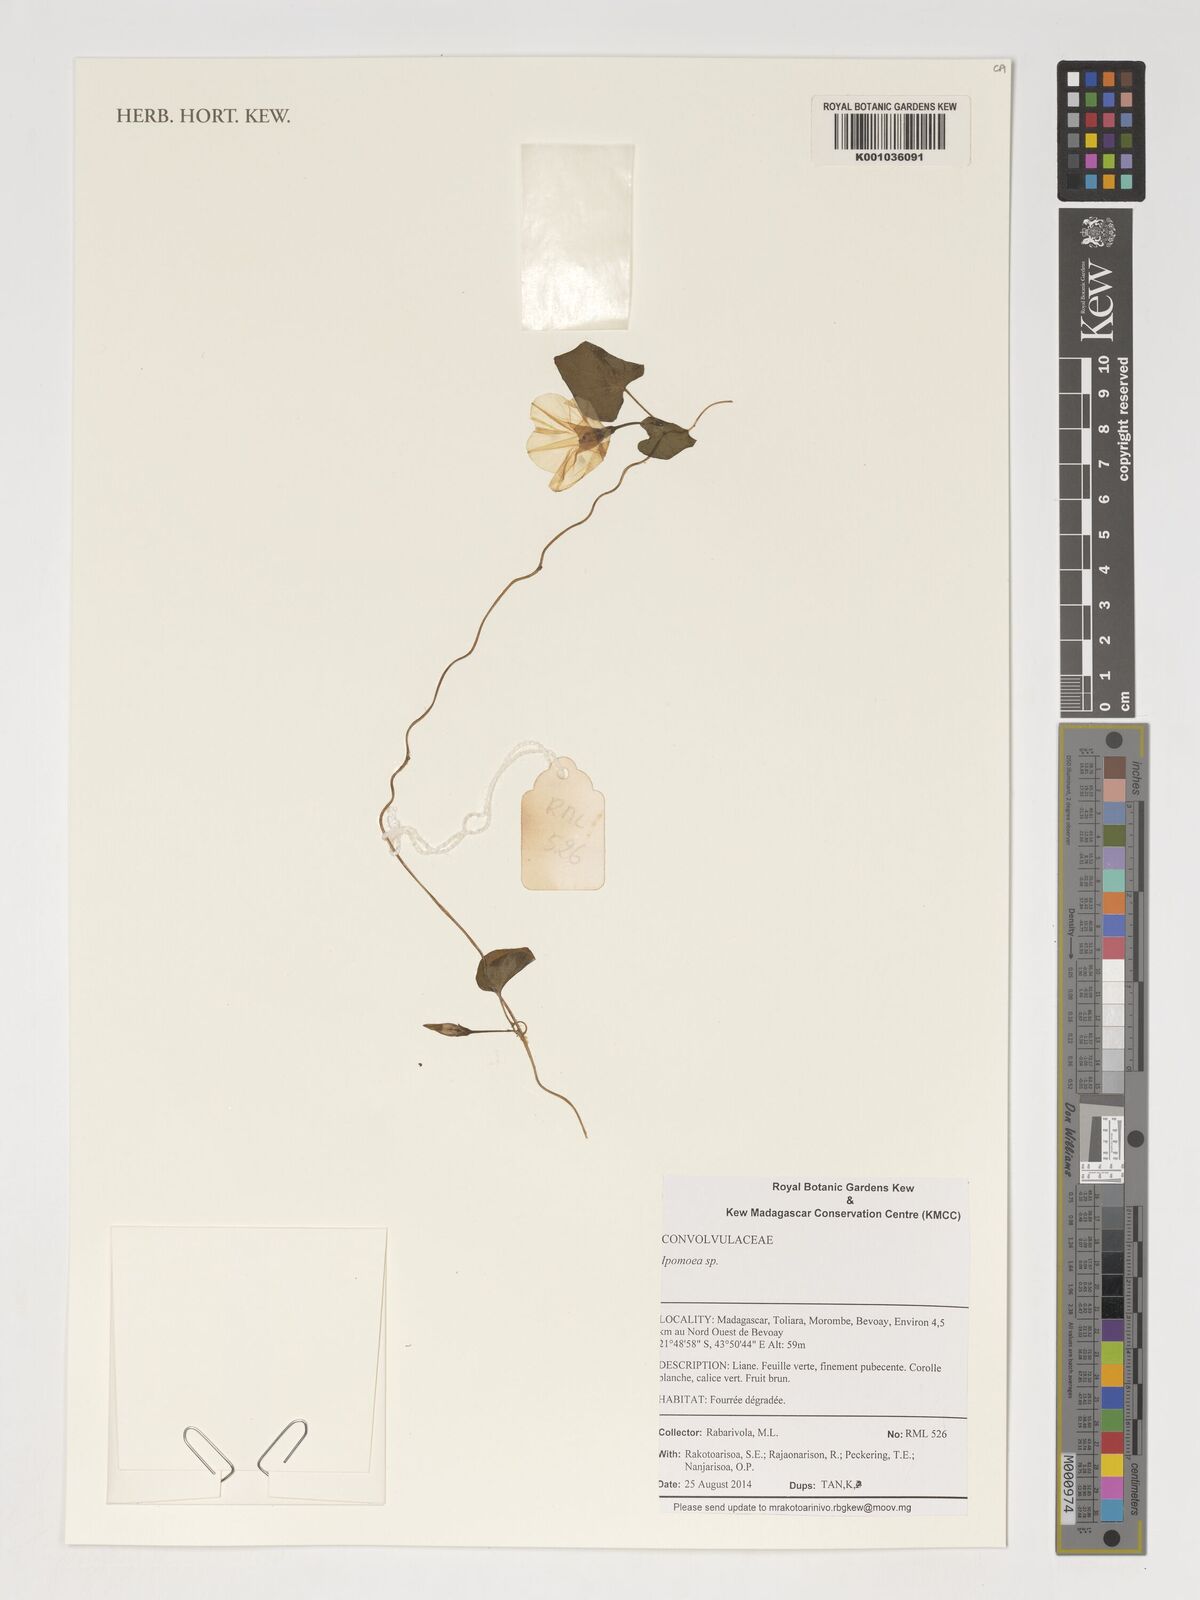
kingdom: Plantae
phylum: Tracheophyta
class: Magnoliopsida
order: Solanales
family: Convolvulaceae
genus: Ipomoea
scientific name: Ipomoea
